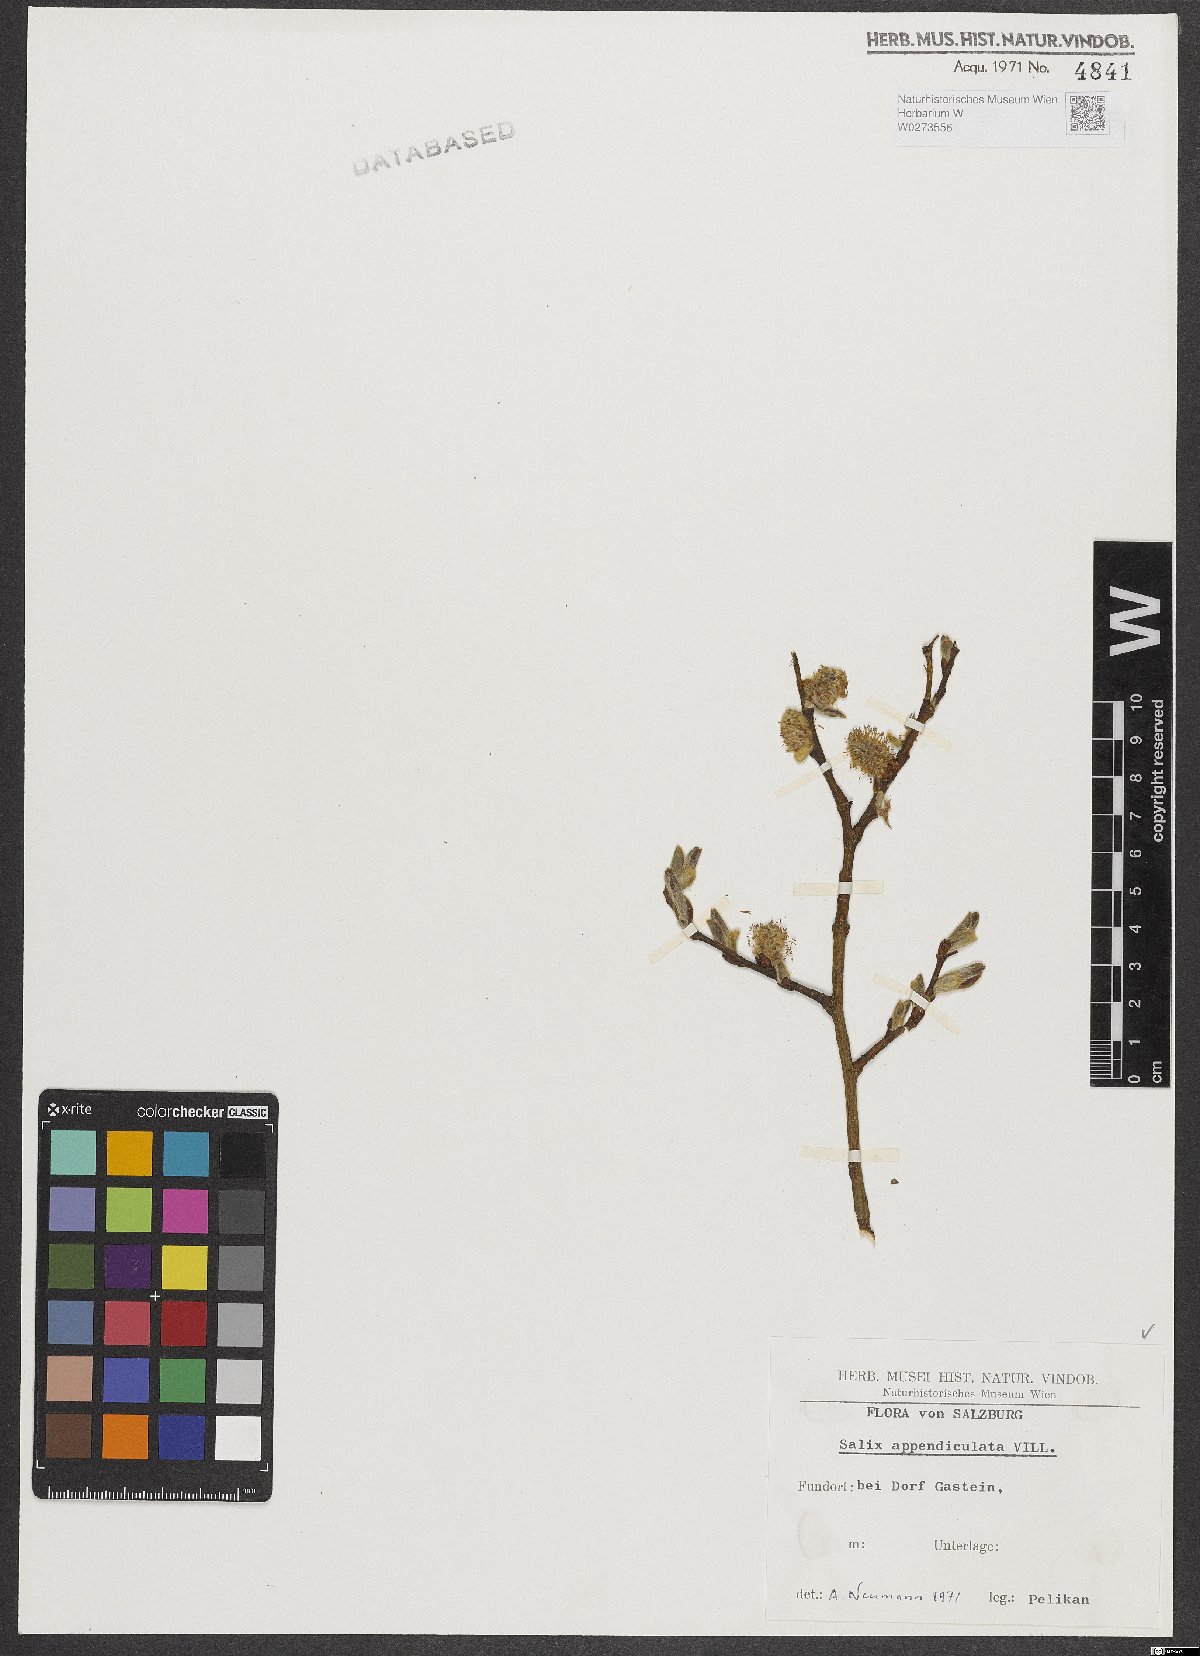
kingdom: Plantae
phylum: Tracheophyta
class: Magnoliopsida
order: Malpighiales
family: Salicaceae
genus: Salix
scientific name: Salix appendiculata
